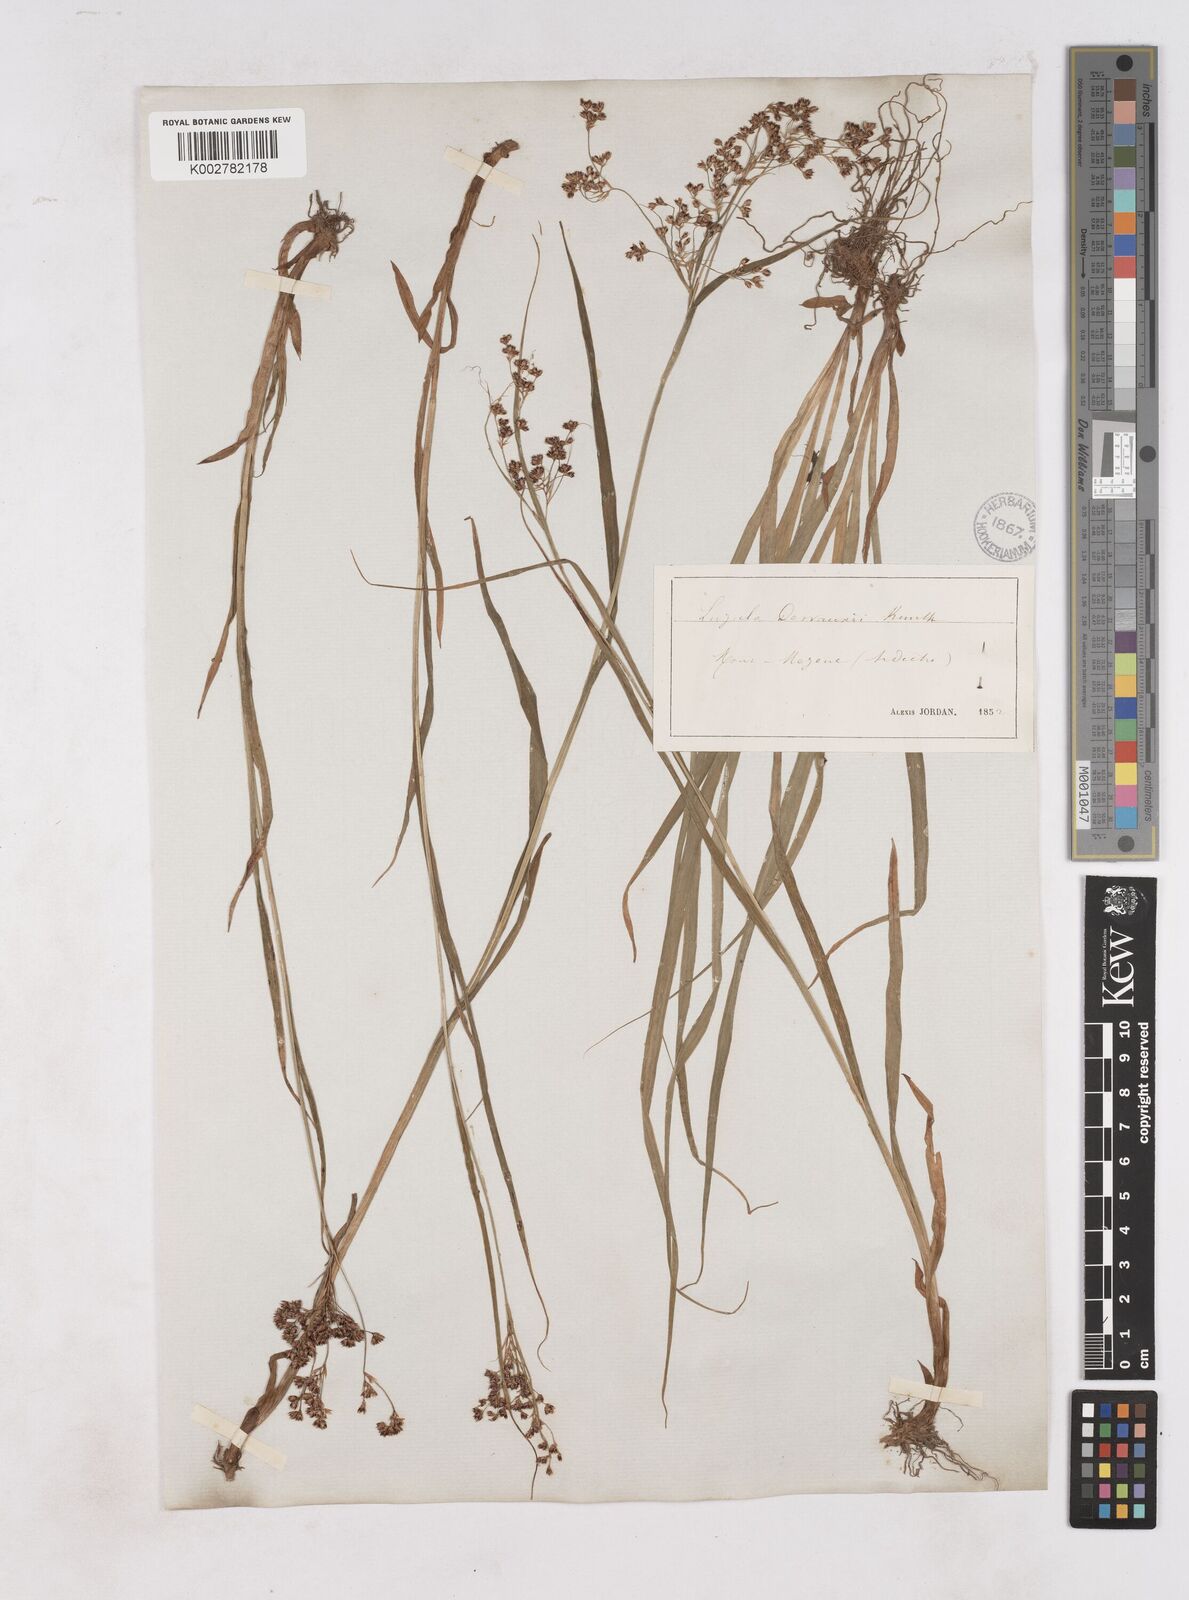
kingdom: Plantae
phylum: Tracheophyta
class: Liliopsida
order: Poales
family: Juncaceae
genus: Luzula
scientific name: Luzula glabrata
